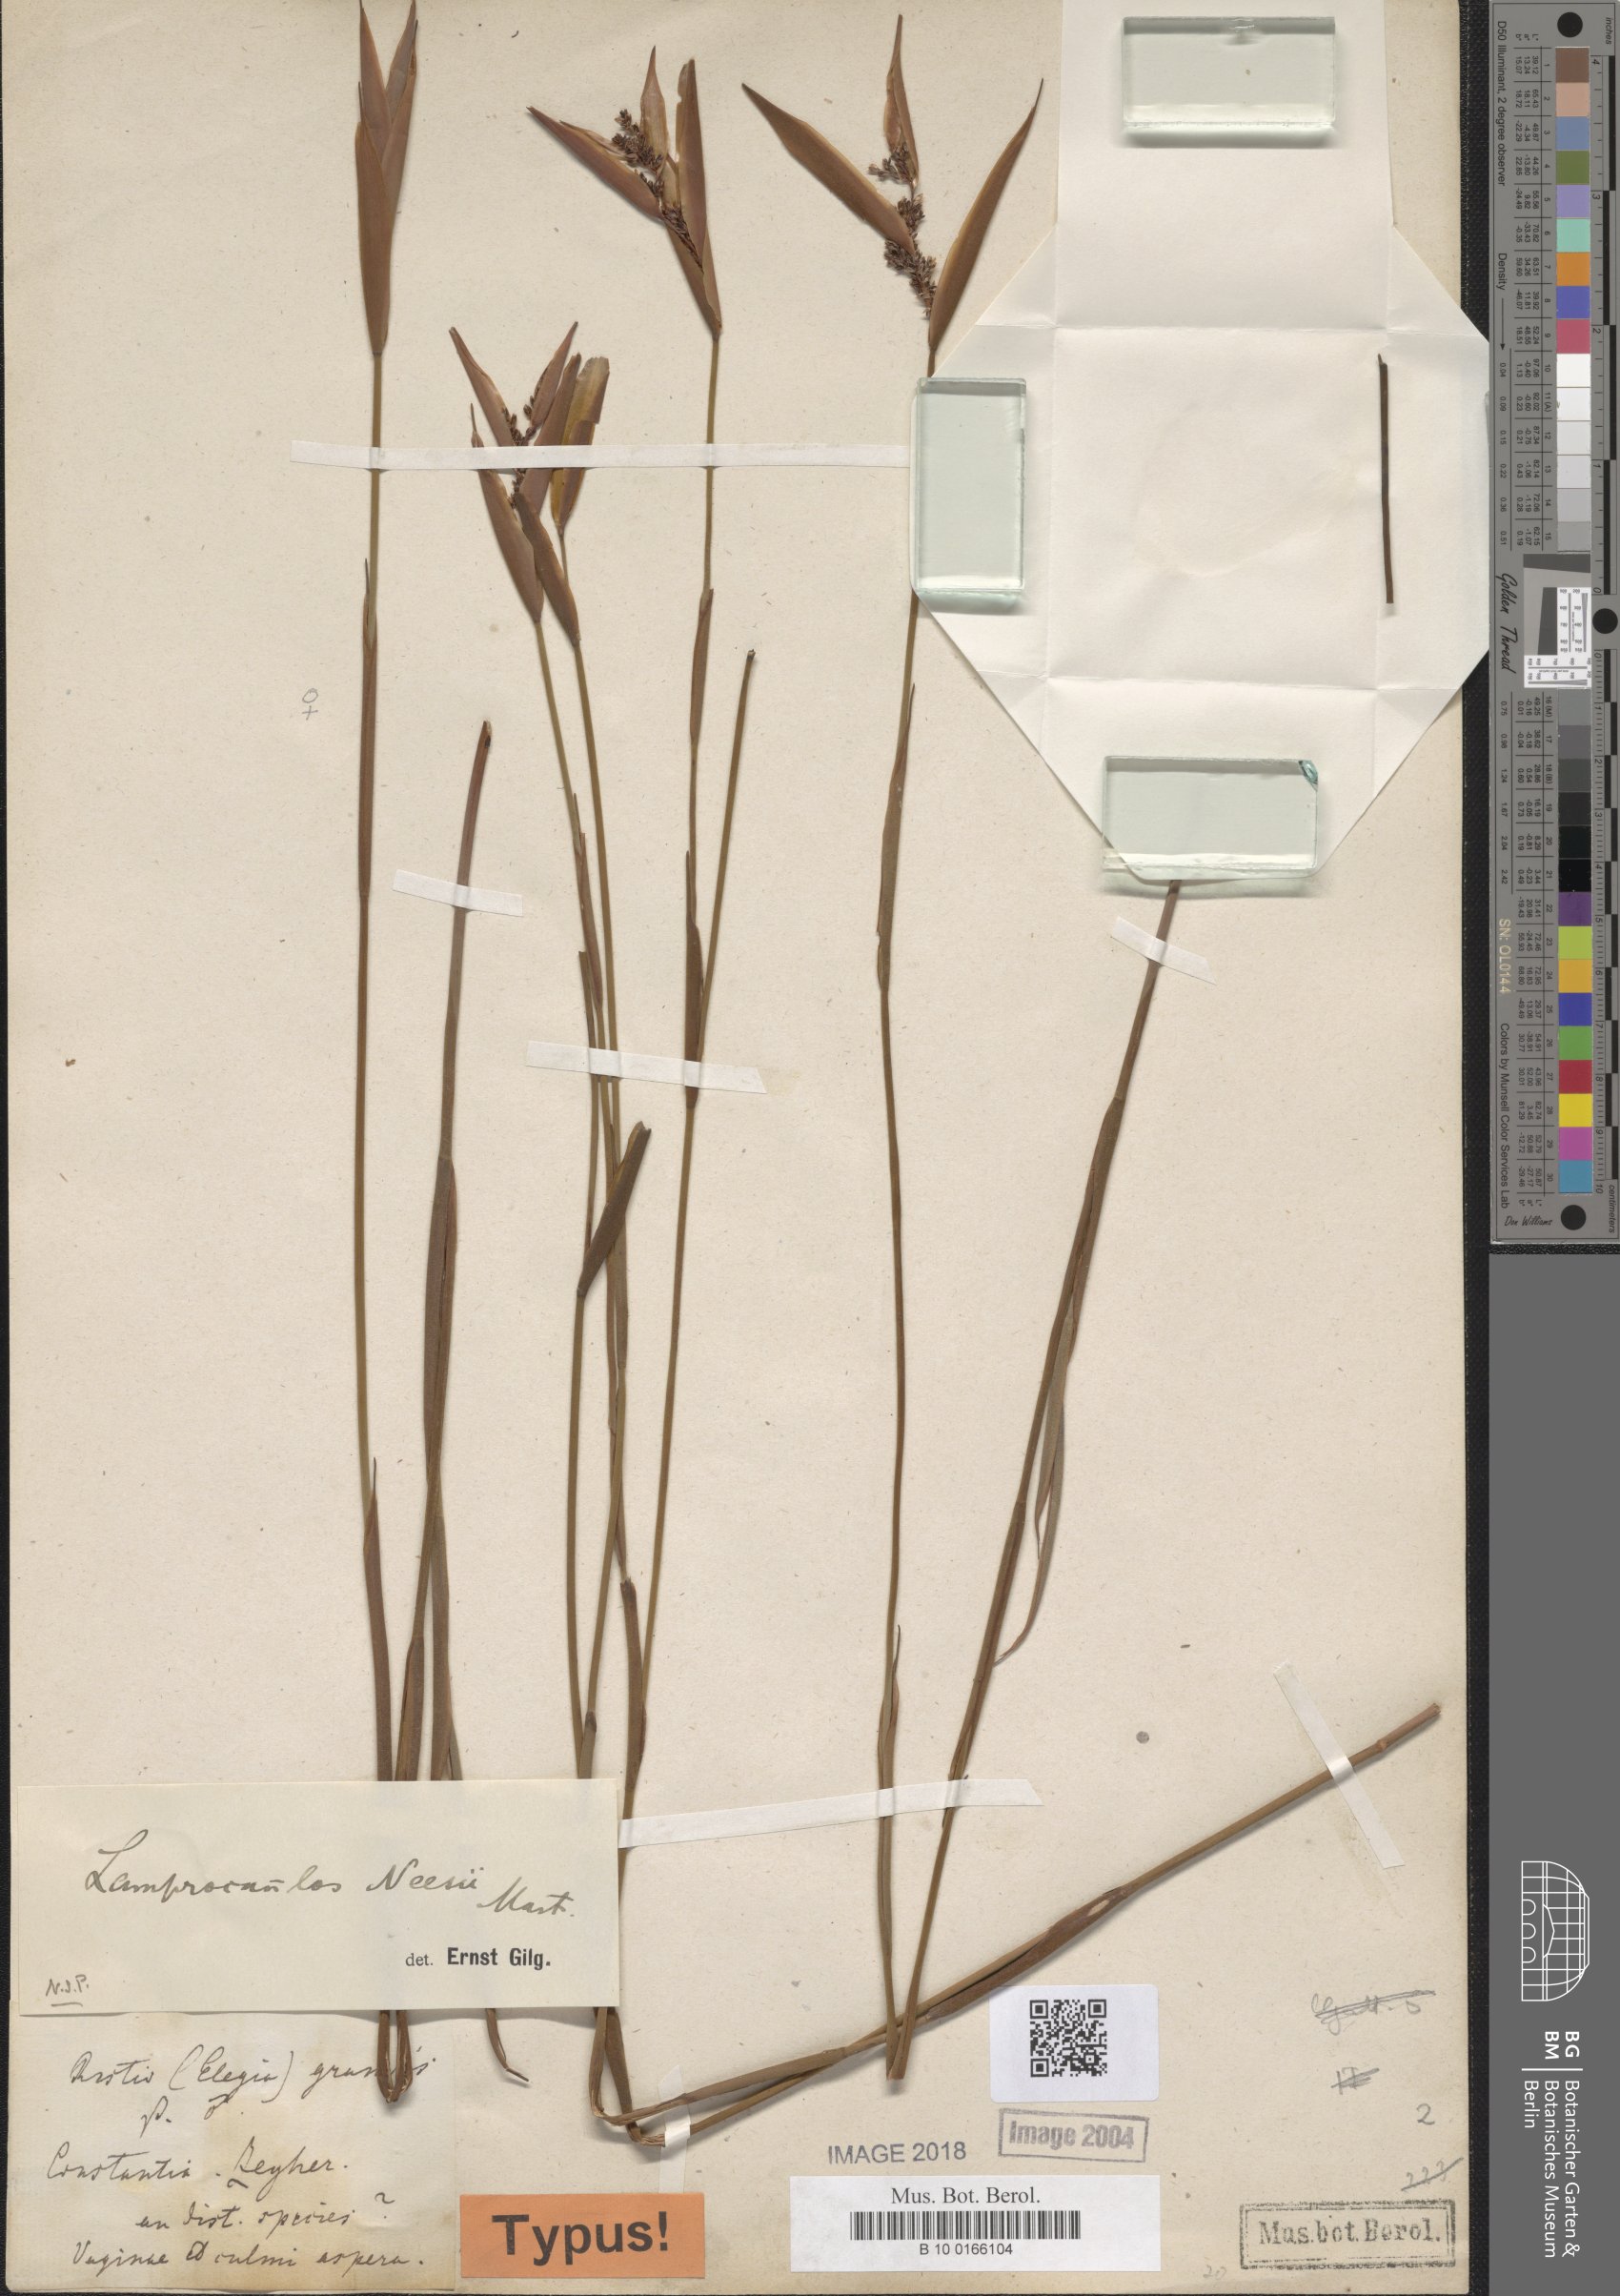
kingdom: Plantae
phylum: Tracheophyta
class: Liliopsida
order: Poales
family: Restionaceae
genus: Elegia
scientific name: Elegia neesii
